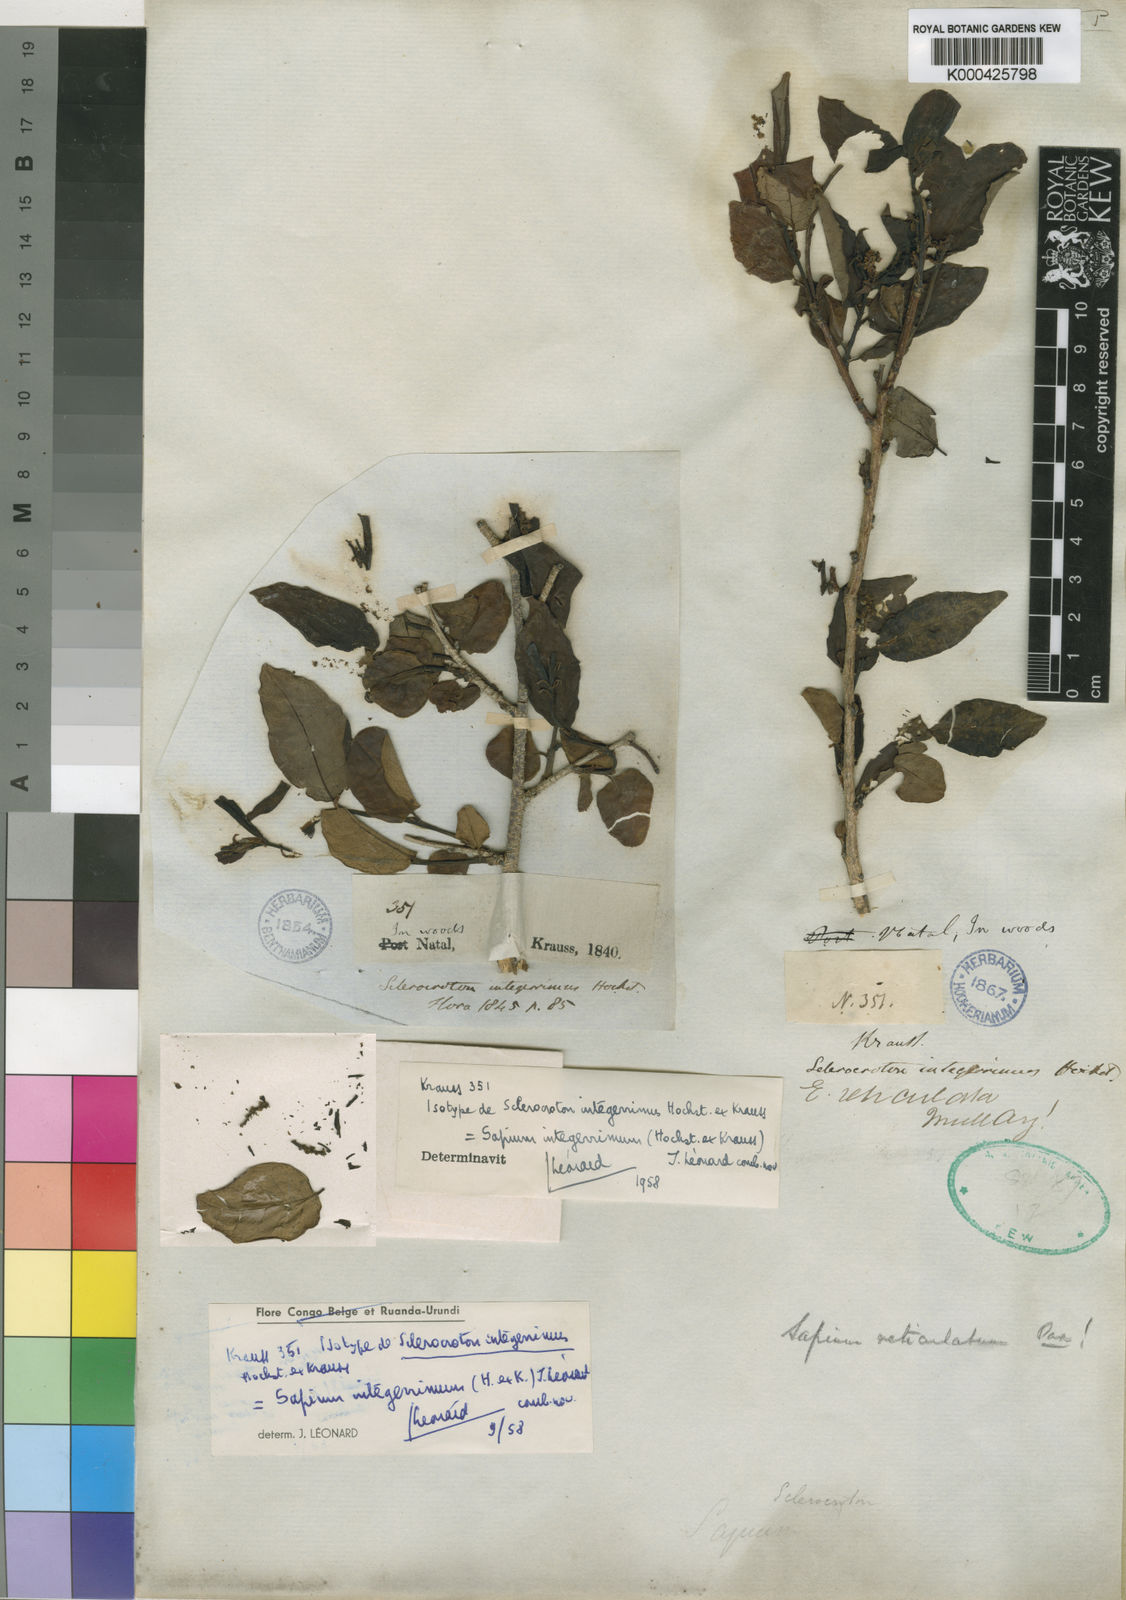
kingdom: Plantae
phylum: Tracheophyta
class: Magnoliopsida
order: Malpighiales
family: Euphorbiaceae
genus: Sapium
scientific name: Sapium
